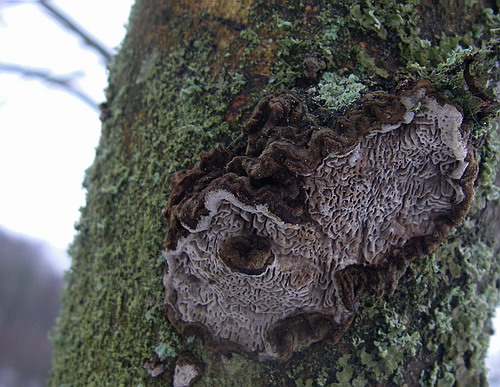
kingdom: Fungi
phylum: Basidiomycota
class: Agaricomycetes
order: Polyporales
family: Polyporaceae
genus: Podofomes
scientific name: Podofomes mollis
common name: blød begporesvamp
